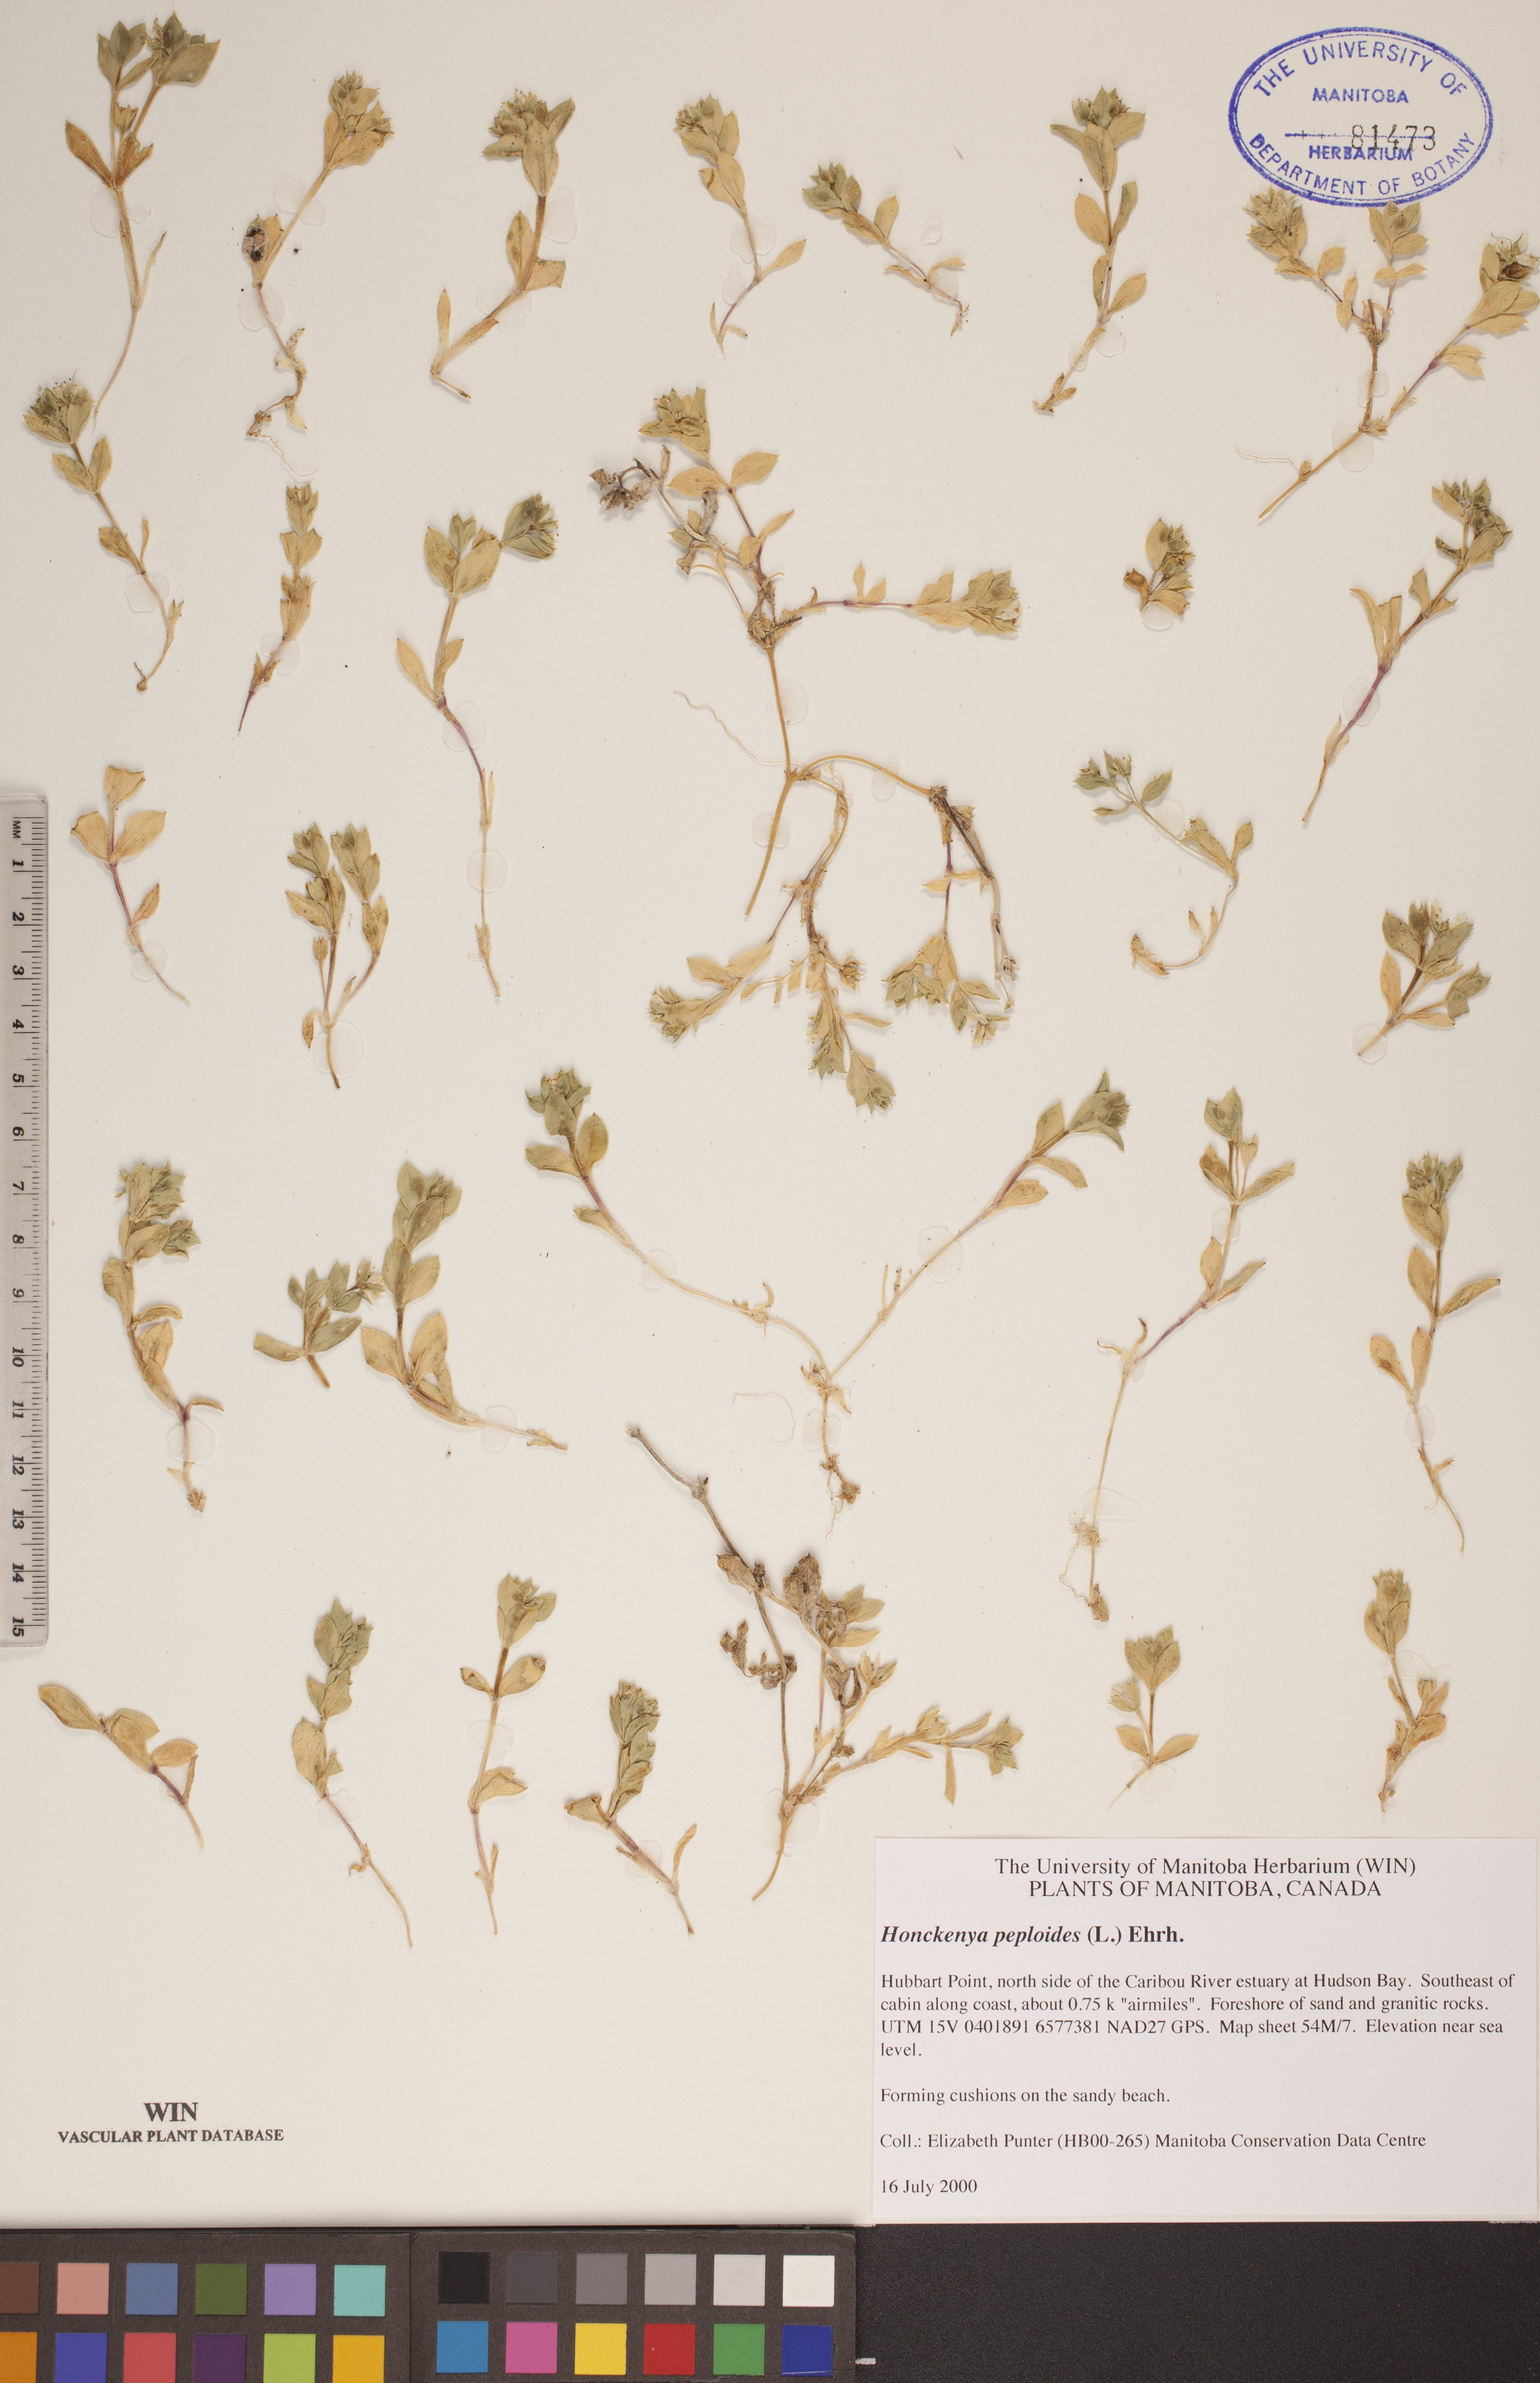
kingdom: Plantae
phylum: Tracheophyta
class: Magnoliopsida
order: Caryophyllales
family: Caryophyllaceae
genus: Honckenya
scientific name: Honckenya peploides
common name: Sea sandwort
